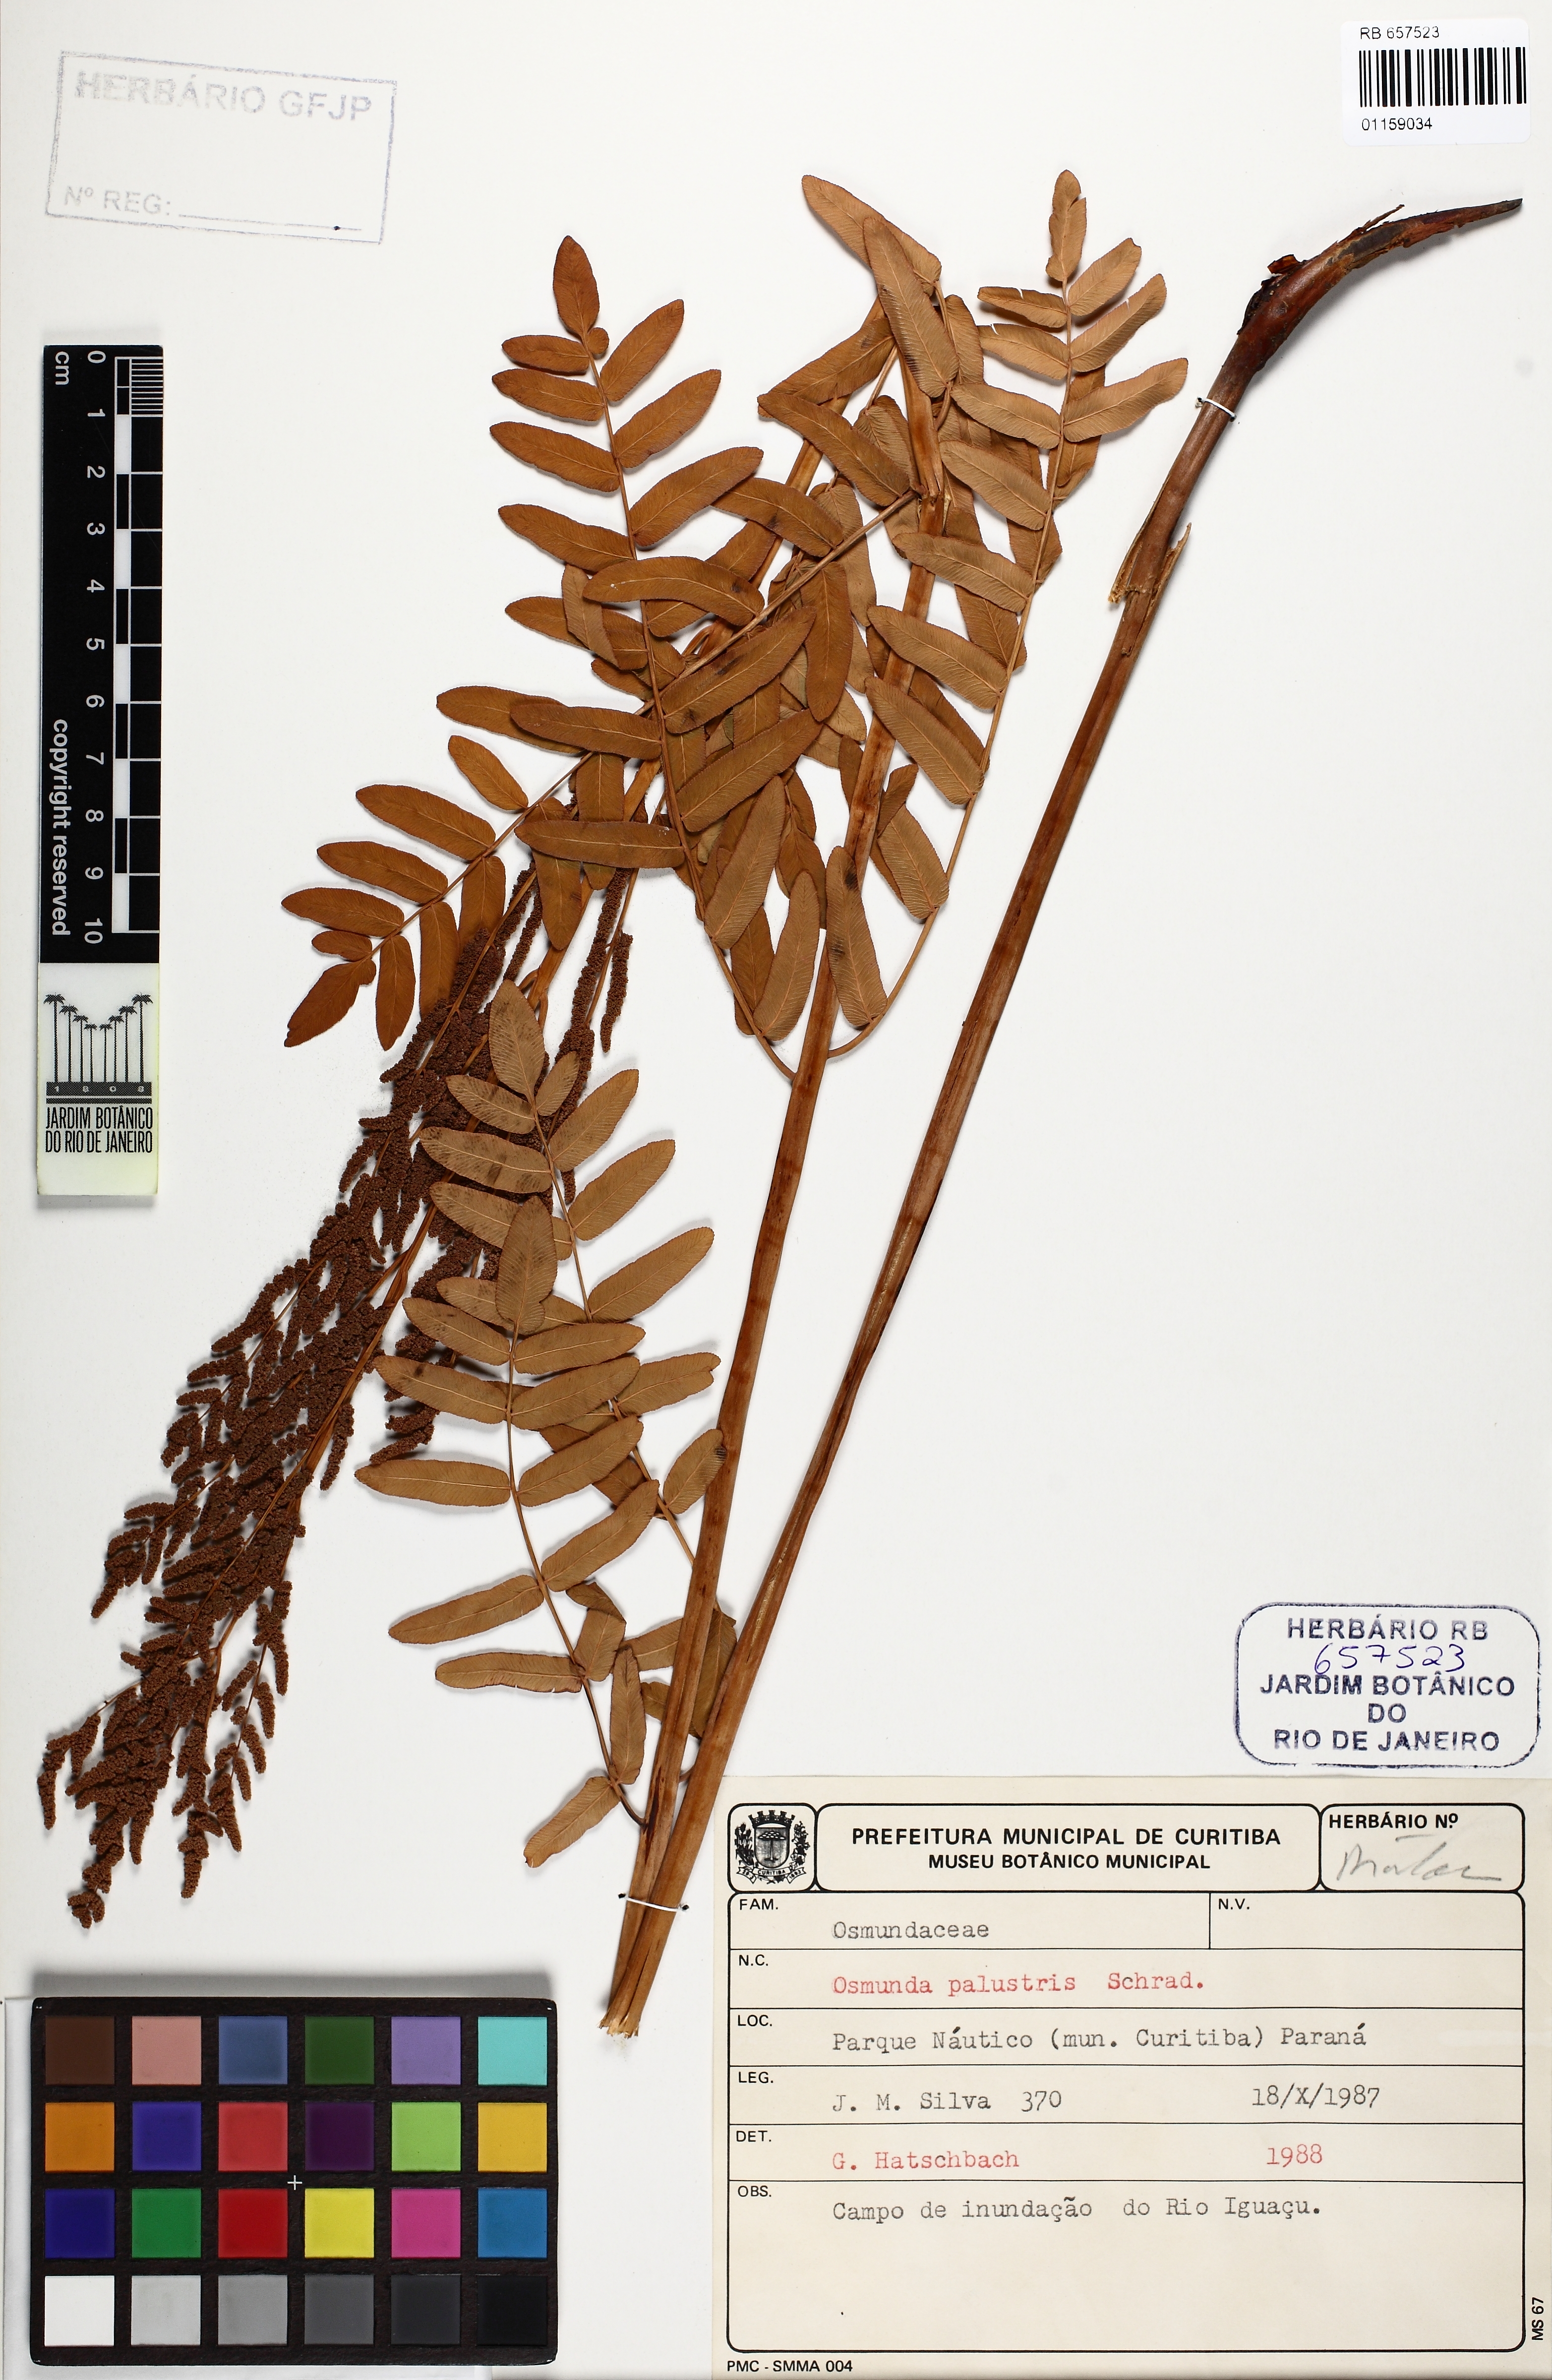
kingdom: Plantae
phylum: Tracheophyta
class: Polypodiopsida
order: Osmundales
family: Osmundaceae
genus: Osmunda
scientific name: Osmunda spectabilis
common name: American royal fern
